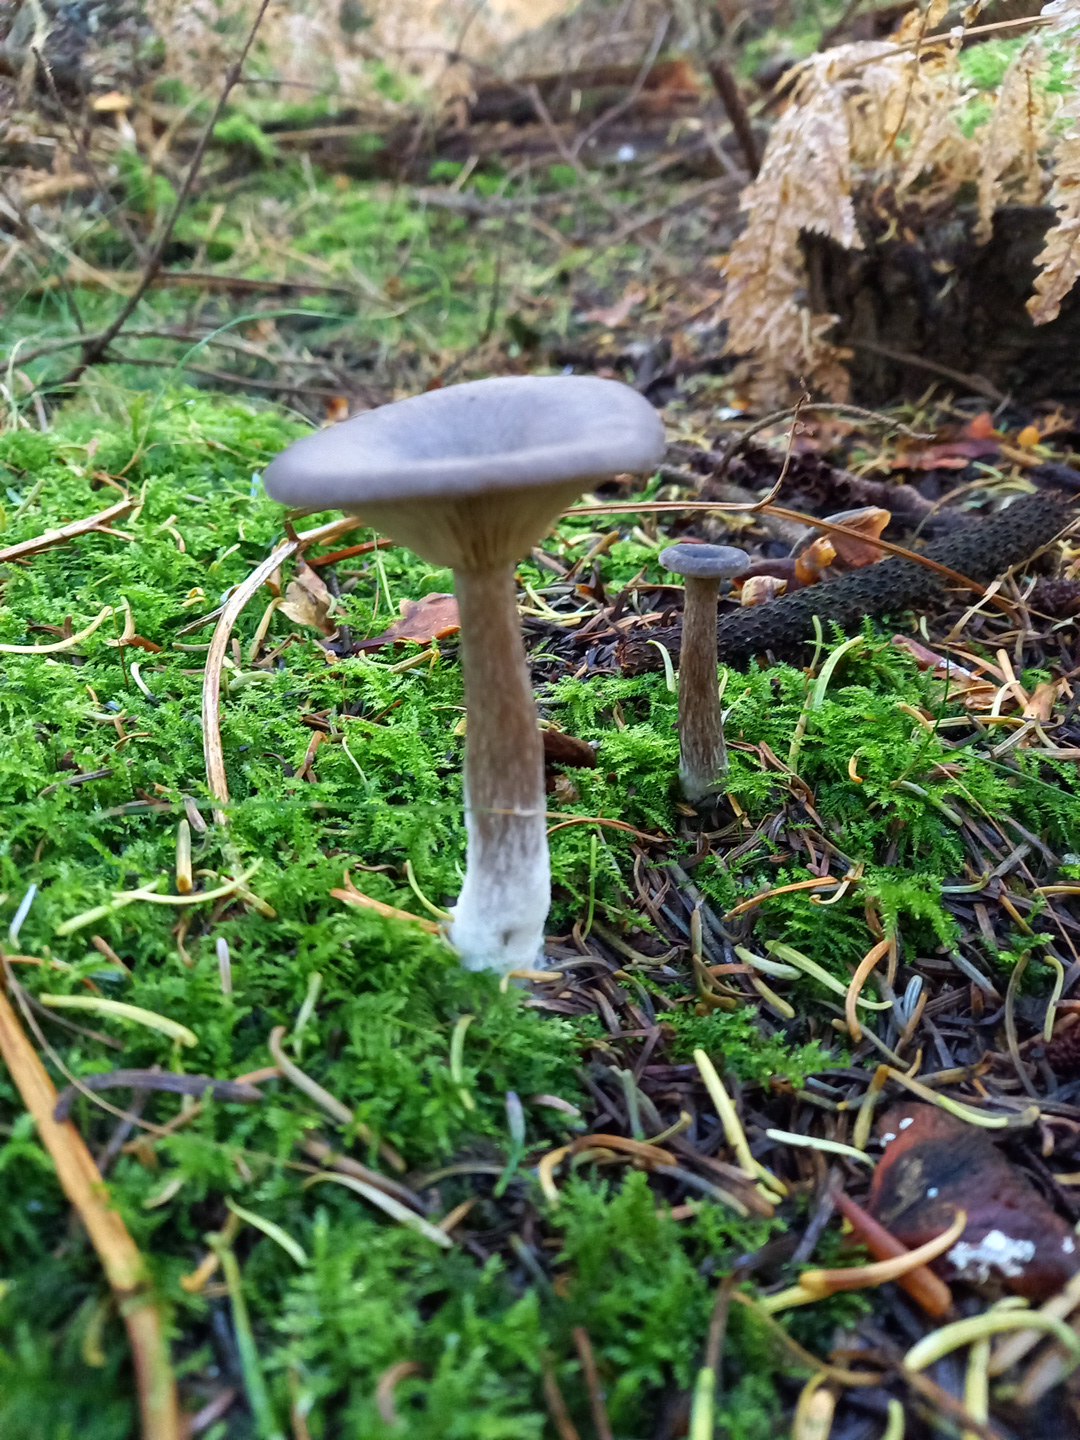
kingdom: Fungi
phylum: Basidiomycota
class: Agaricomycetes
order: Agaricales
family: Pseudoclitocybaceae
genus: Pseudoclitocybe
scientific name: Pseudoclitocybe cyathiformis
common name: almindelig bægertragthat
